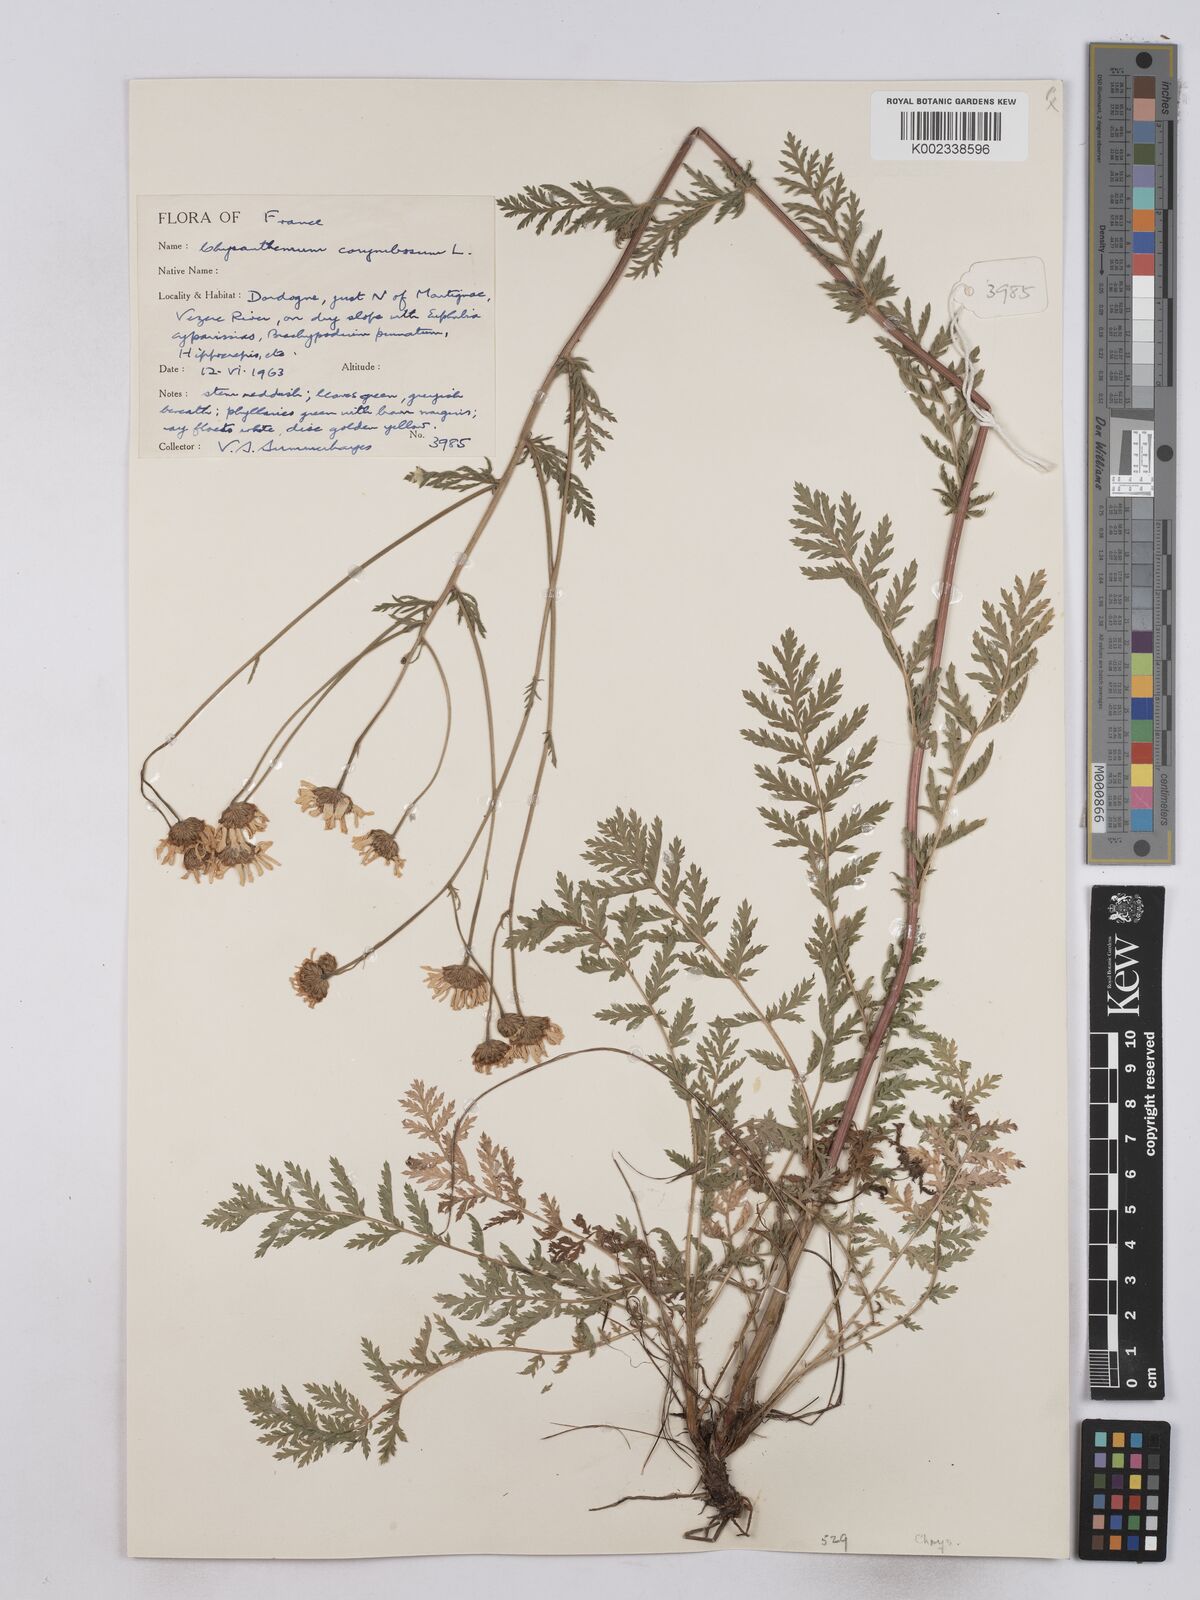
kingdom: Plantae
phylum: Tracheophyta
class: Magnoliopsida
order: Asterales
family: Asteraceae
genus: Tanacetum
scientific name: Tanacetum corymbosum
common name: Scentless feverfew
